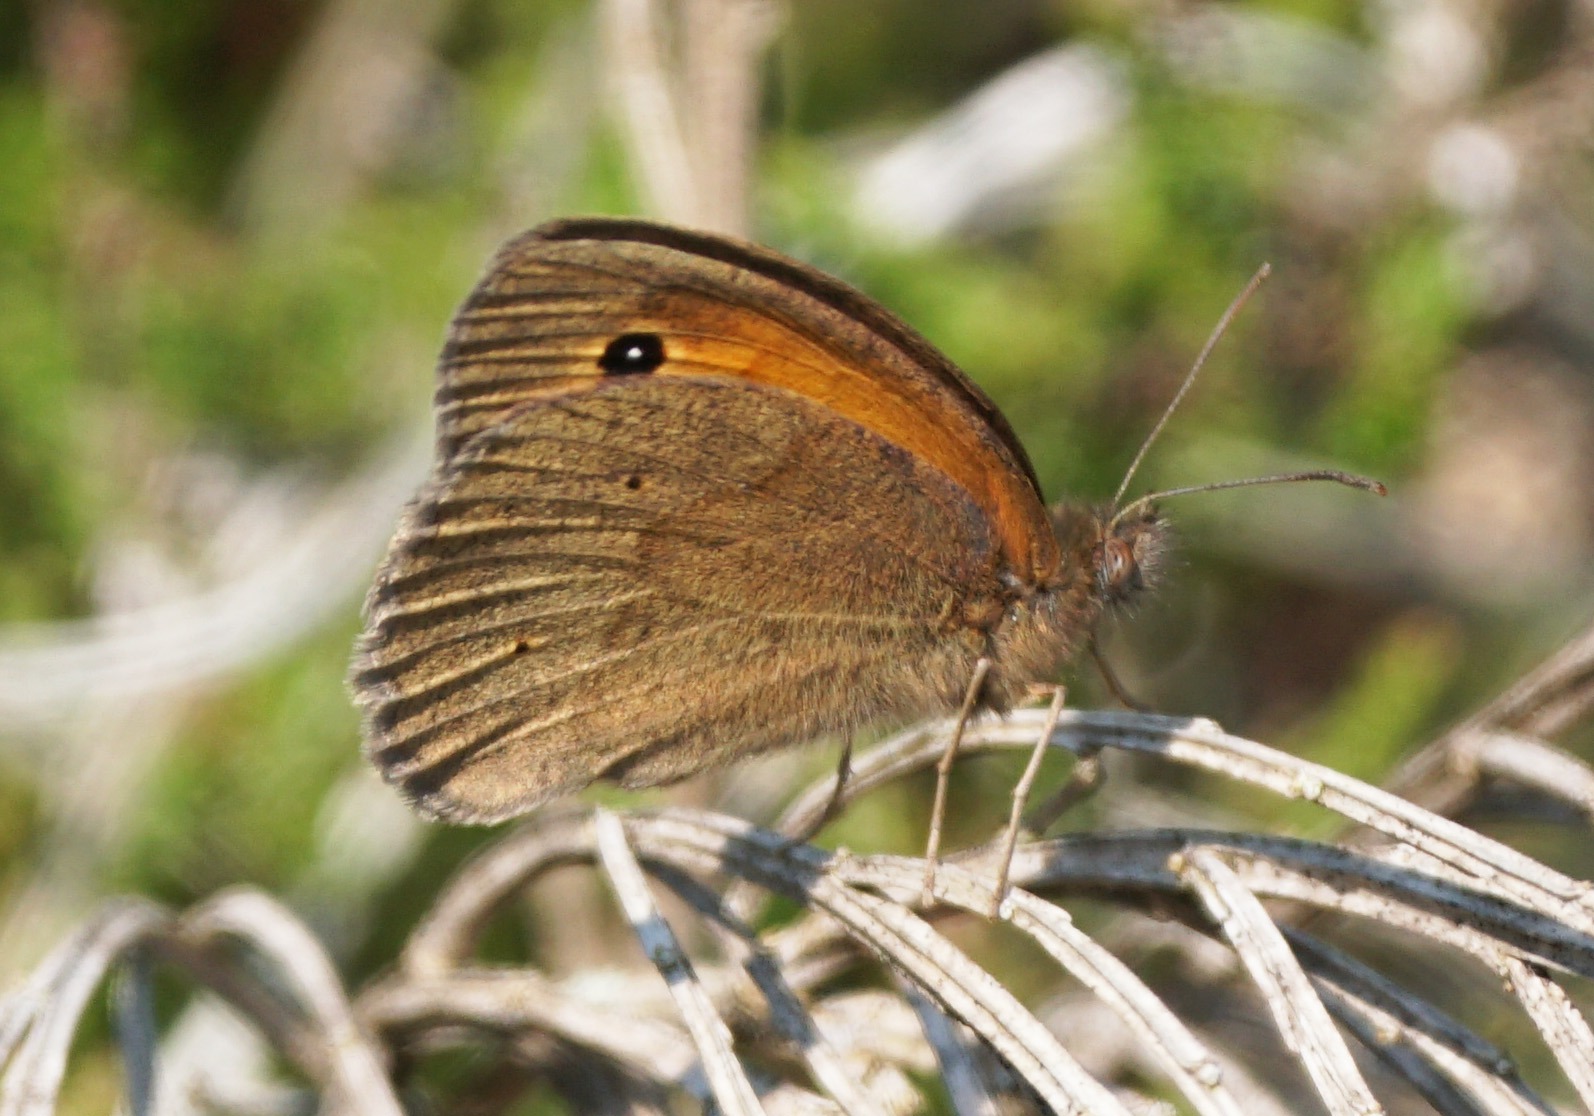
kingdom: Animalia
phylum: Arthropoda
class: Insecta
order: Lepidoptera
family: Nymphalidae
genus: Maniola
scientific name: Maniola jurtina
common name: Græsrandøje
